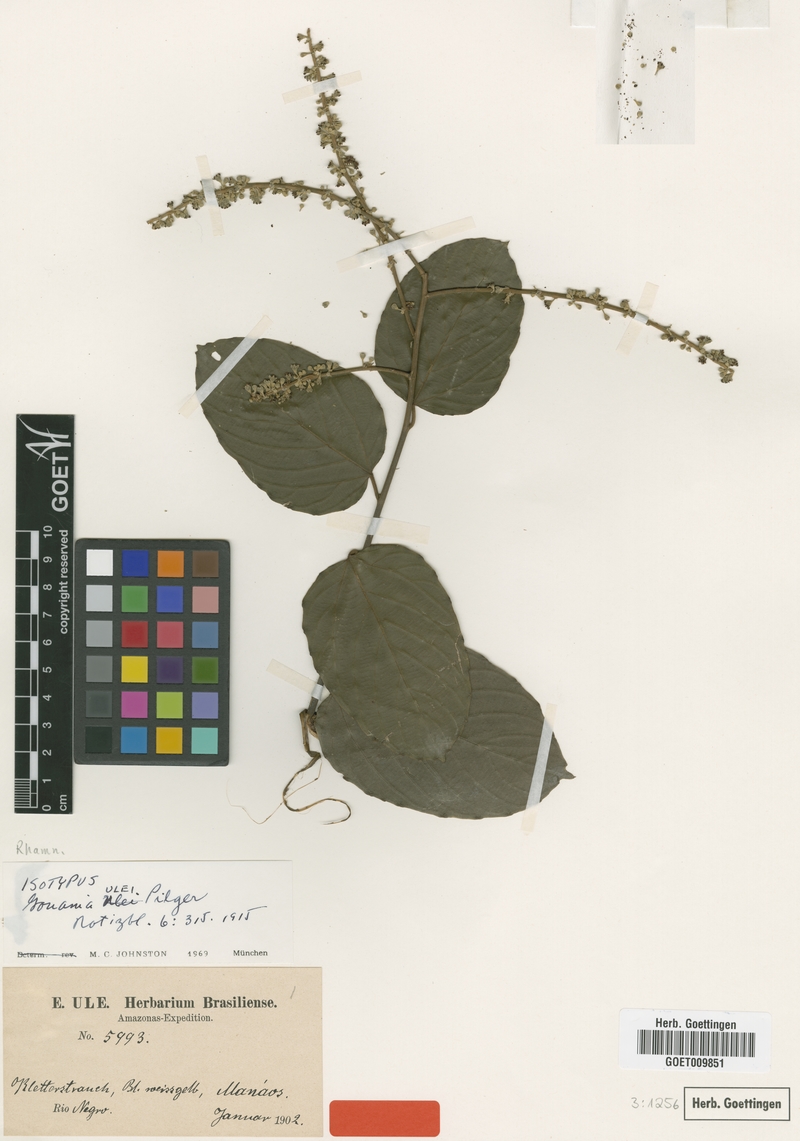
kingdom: Plantae
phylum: Tracheophyta
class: Magnoliopsida
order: Rosales
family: Rhamnaceae
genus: Gouania
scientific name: Gouania discolor
